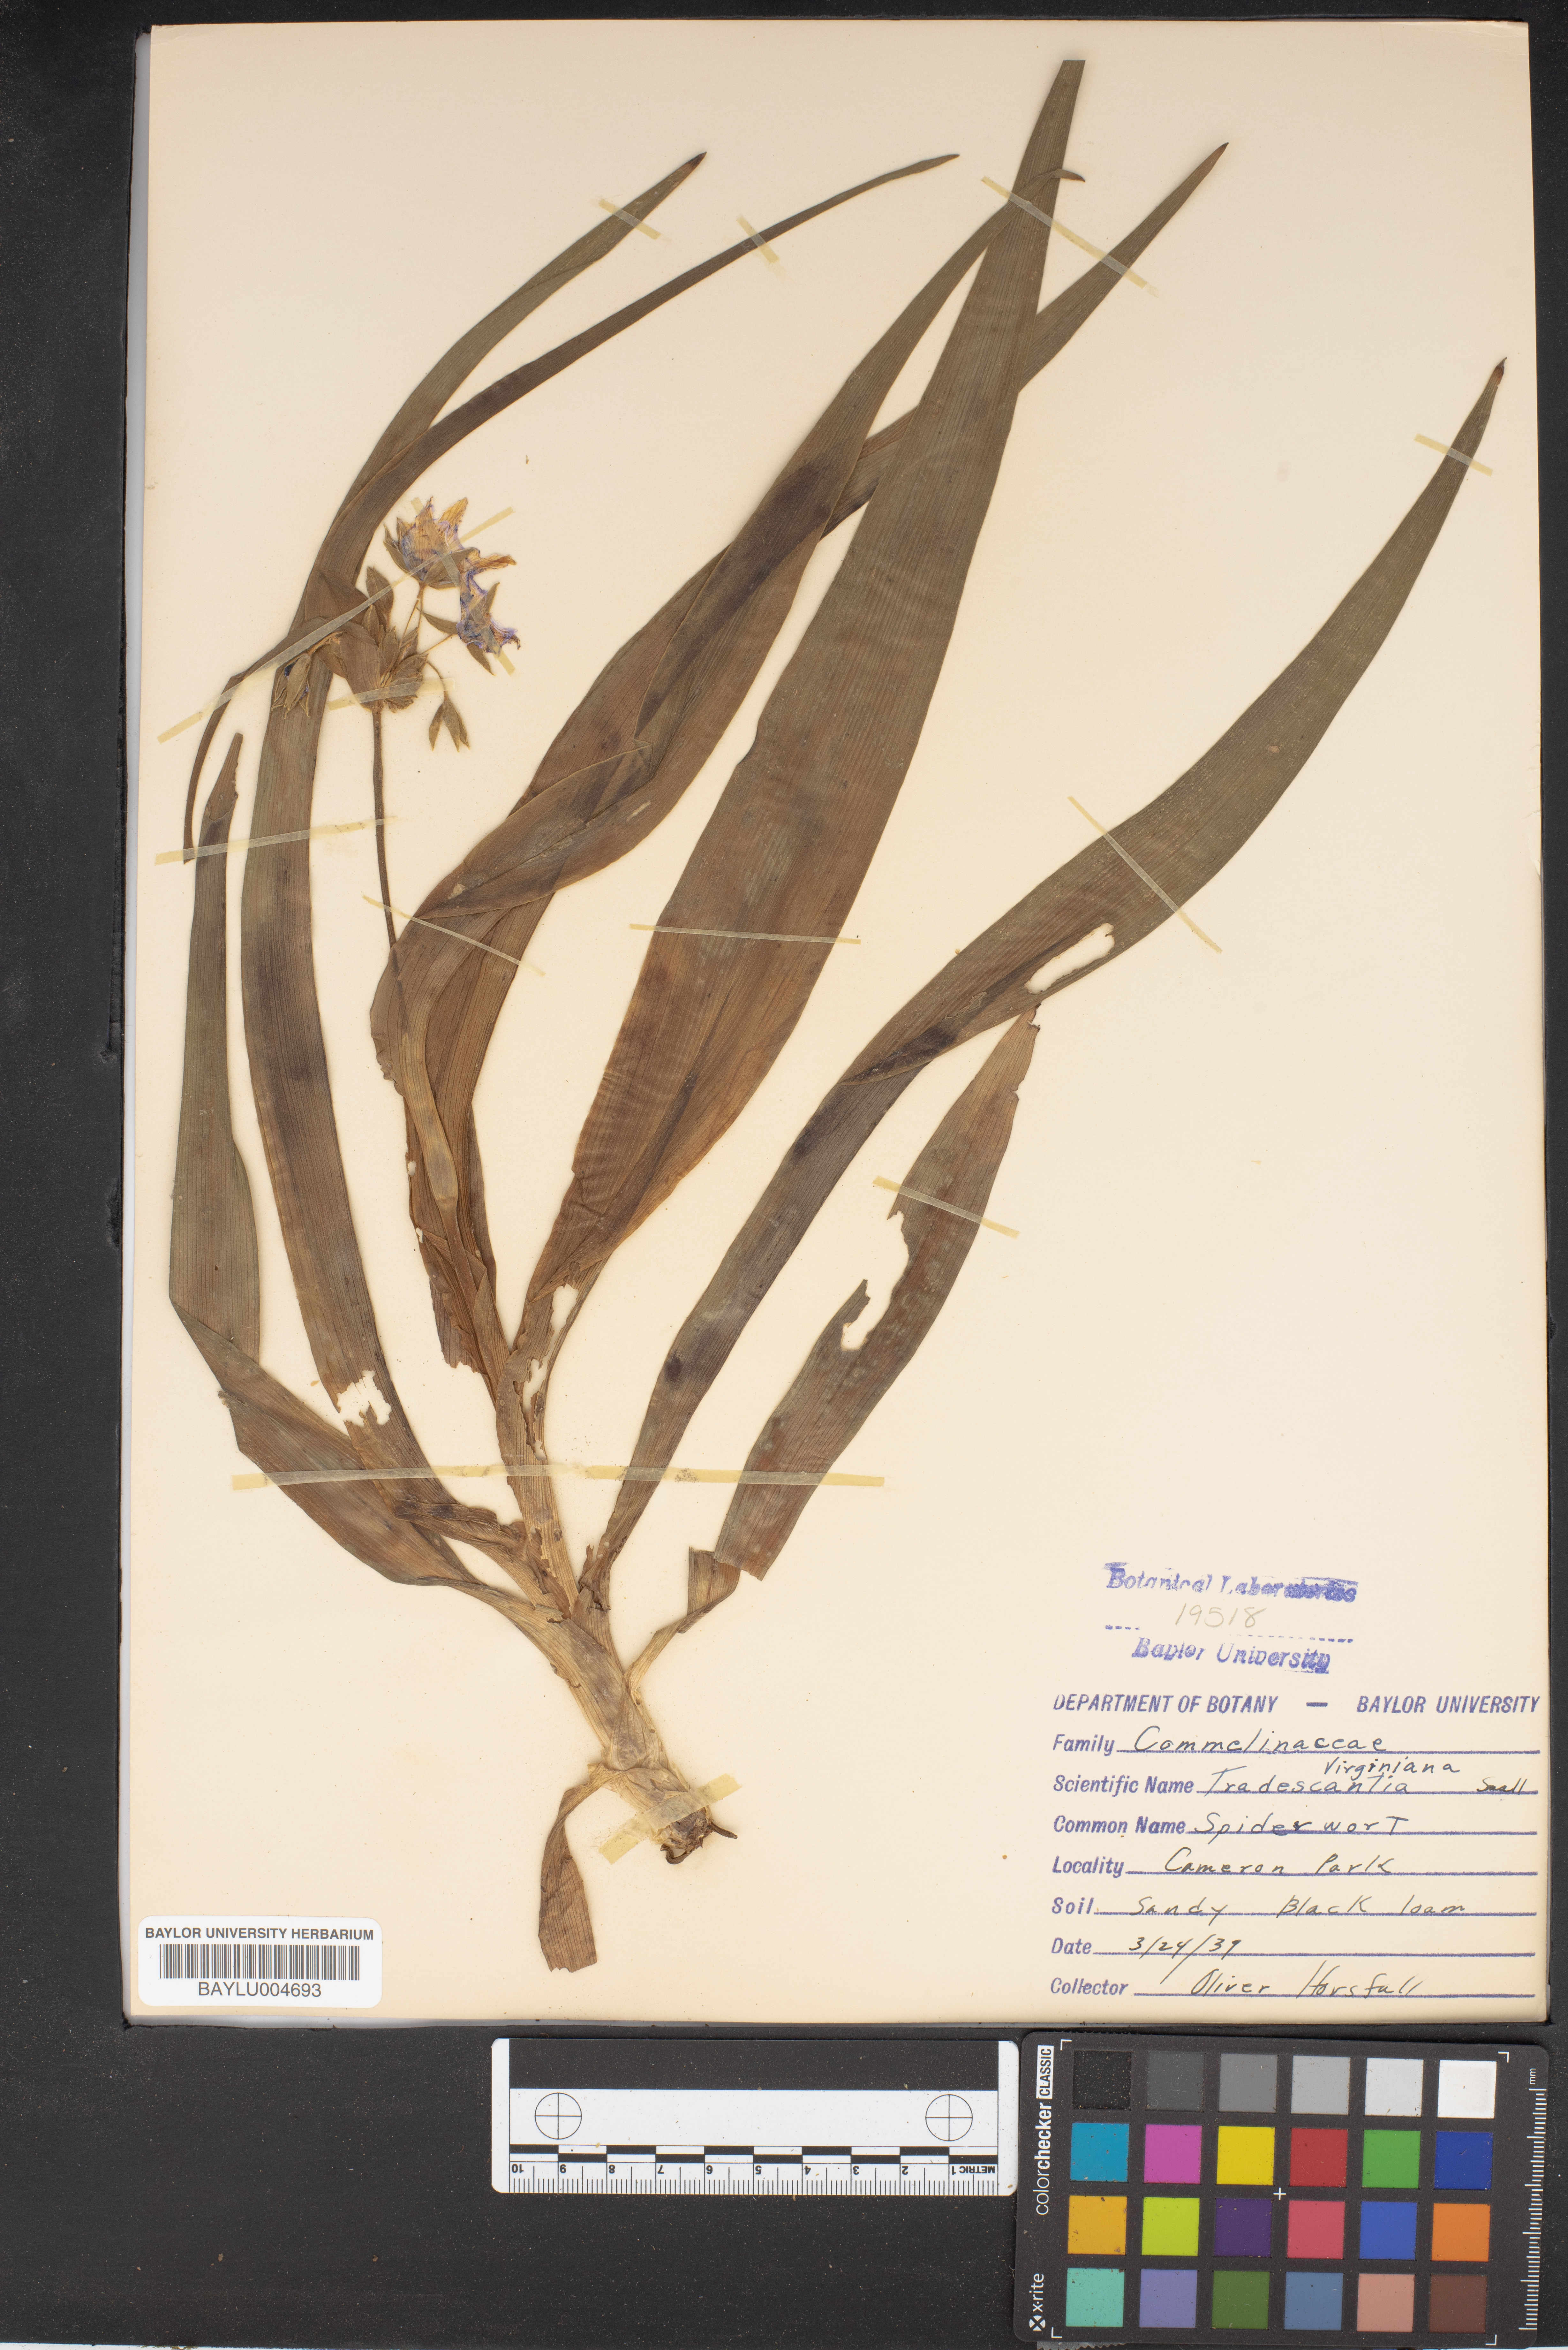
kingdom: Plantae
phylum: Tracheophyta
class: Liliopsida
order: Commelinales
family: Commelinaceae
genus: Tradescantia
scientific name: Tradescantia virginiana
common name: Spiderwort
